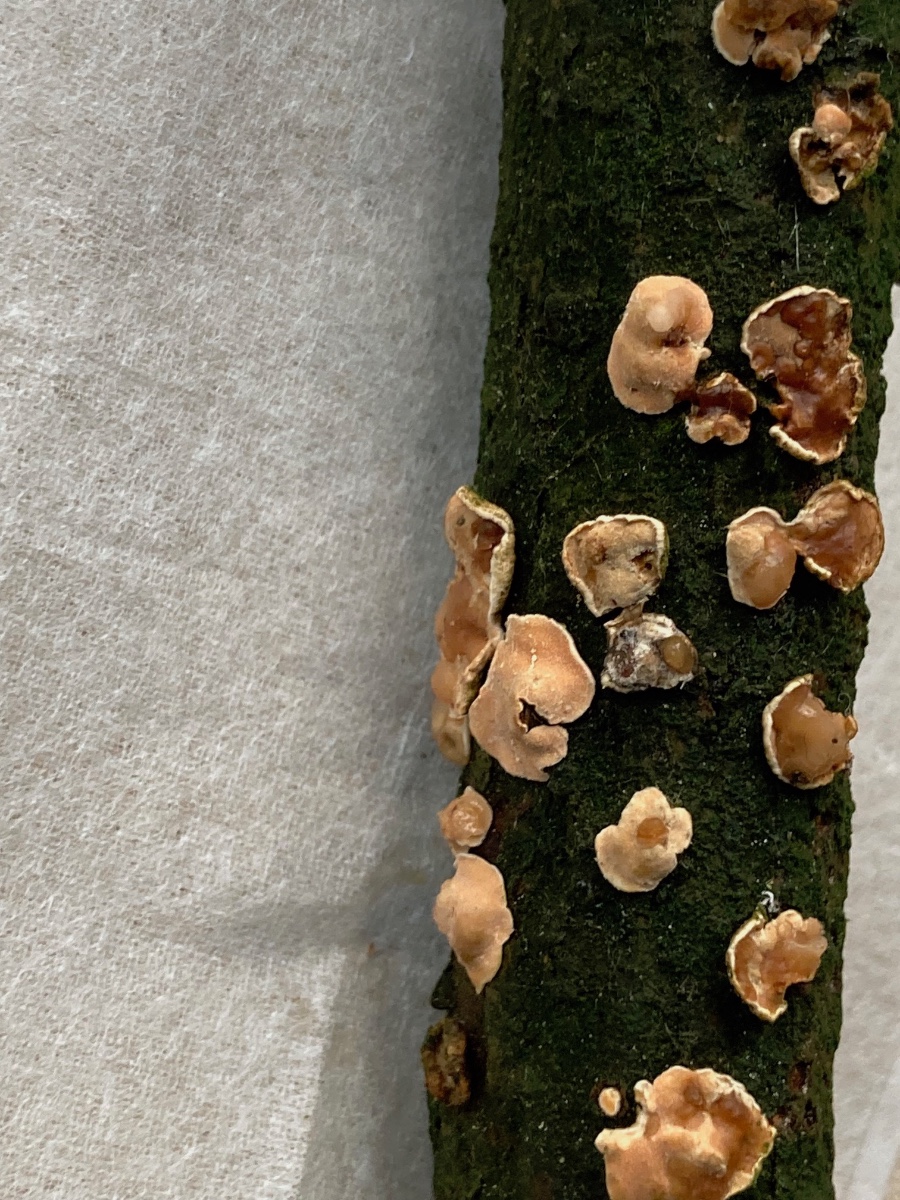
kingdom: Fungi
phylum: Basidiomycota
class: Tremellomycetes
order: Tremellales
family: Tremellaceae
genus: Phaeotremella
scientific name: Phaeotremella simplex
